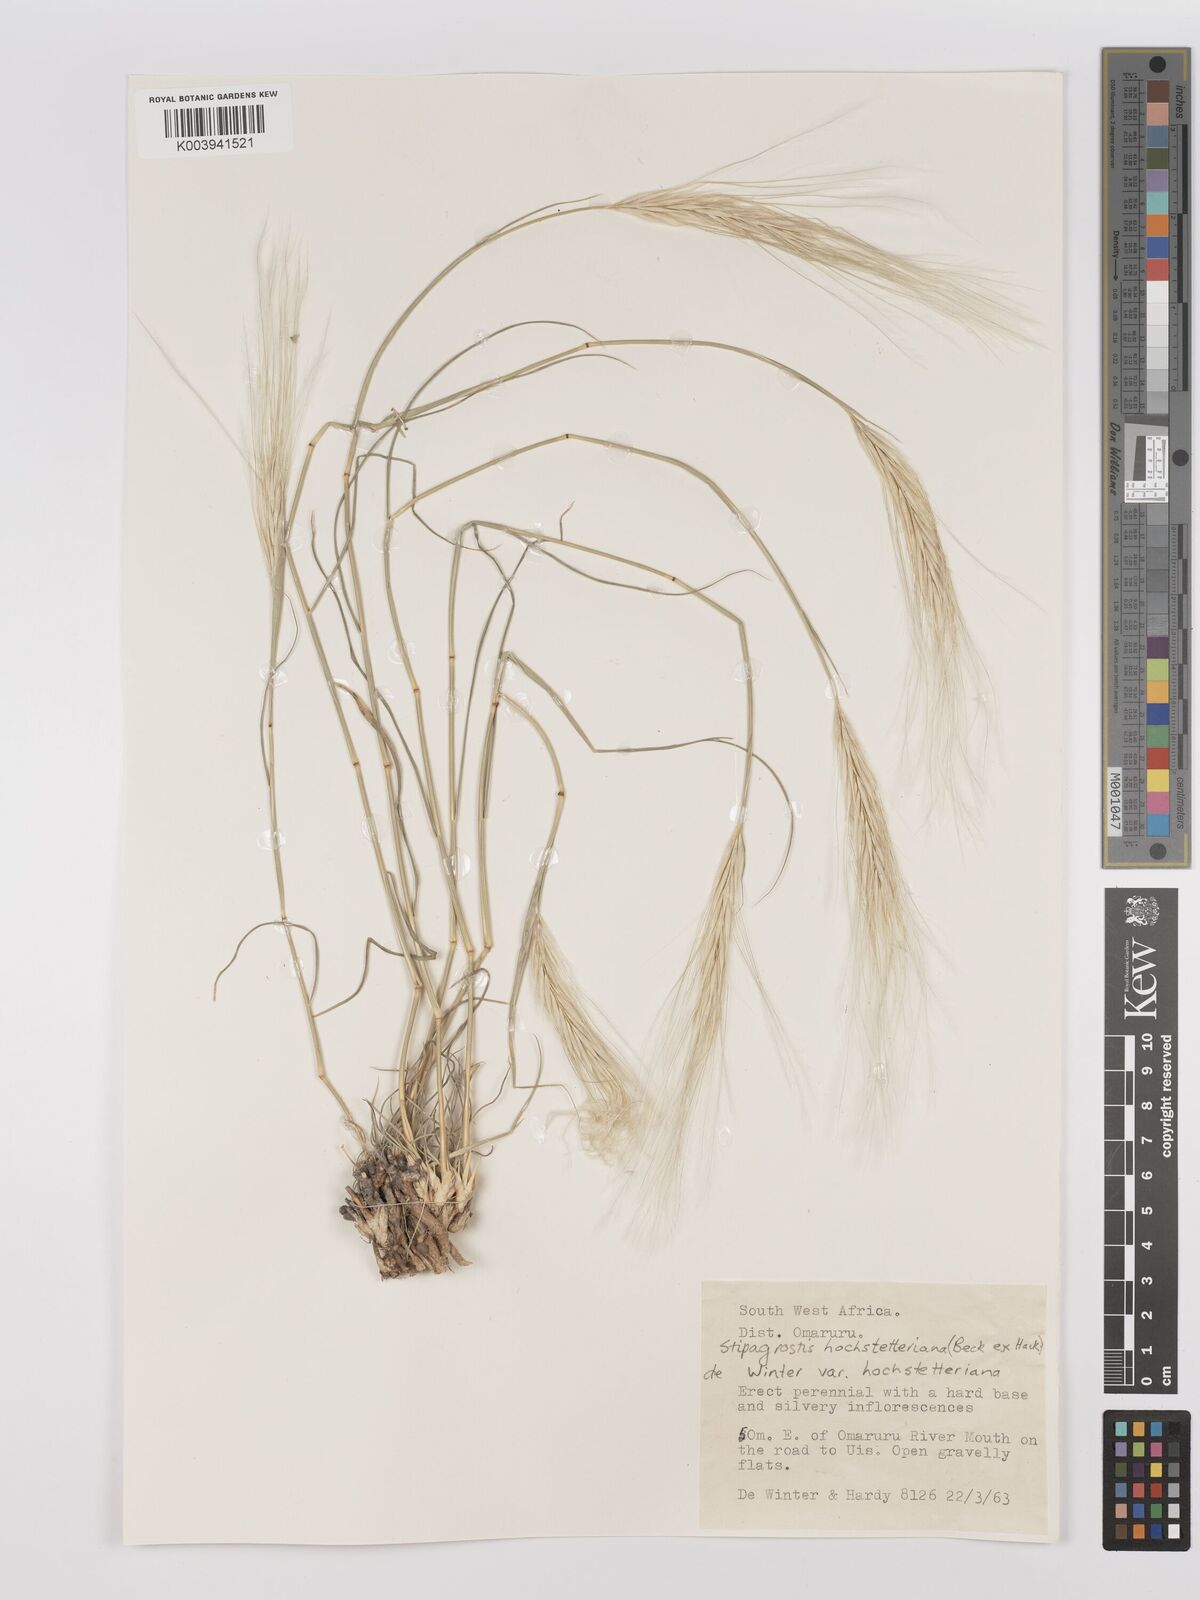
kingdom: Plantae
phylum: Tracheophyta
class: Liliopsida
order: Poales
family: Poaceae
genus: Stipagrostis
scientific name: Stipagrostis hochstetteriana
